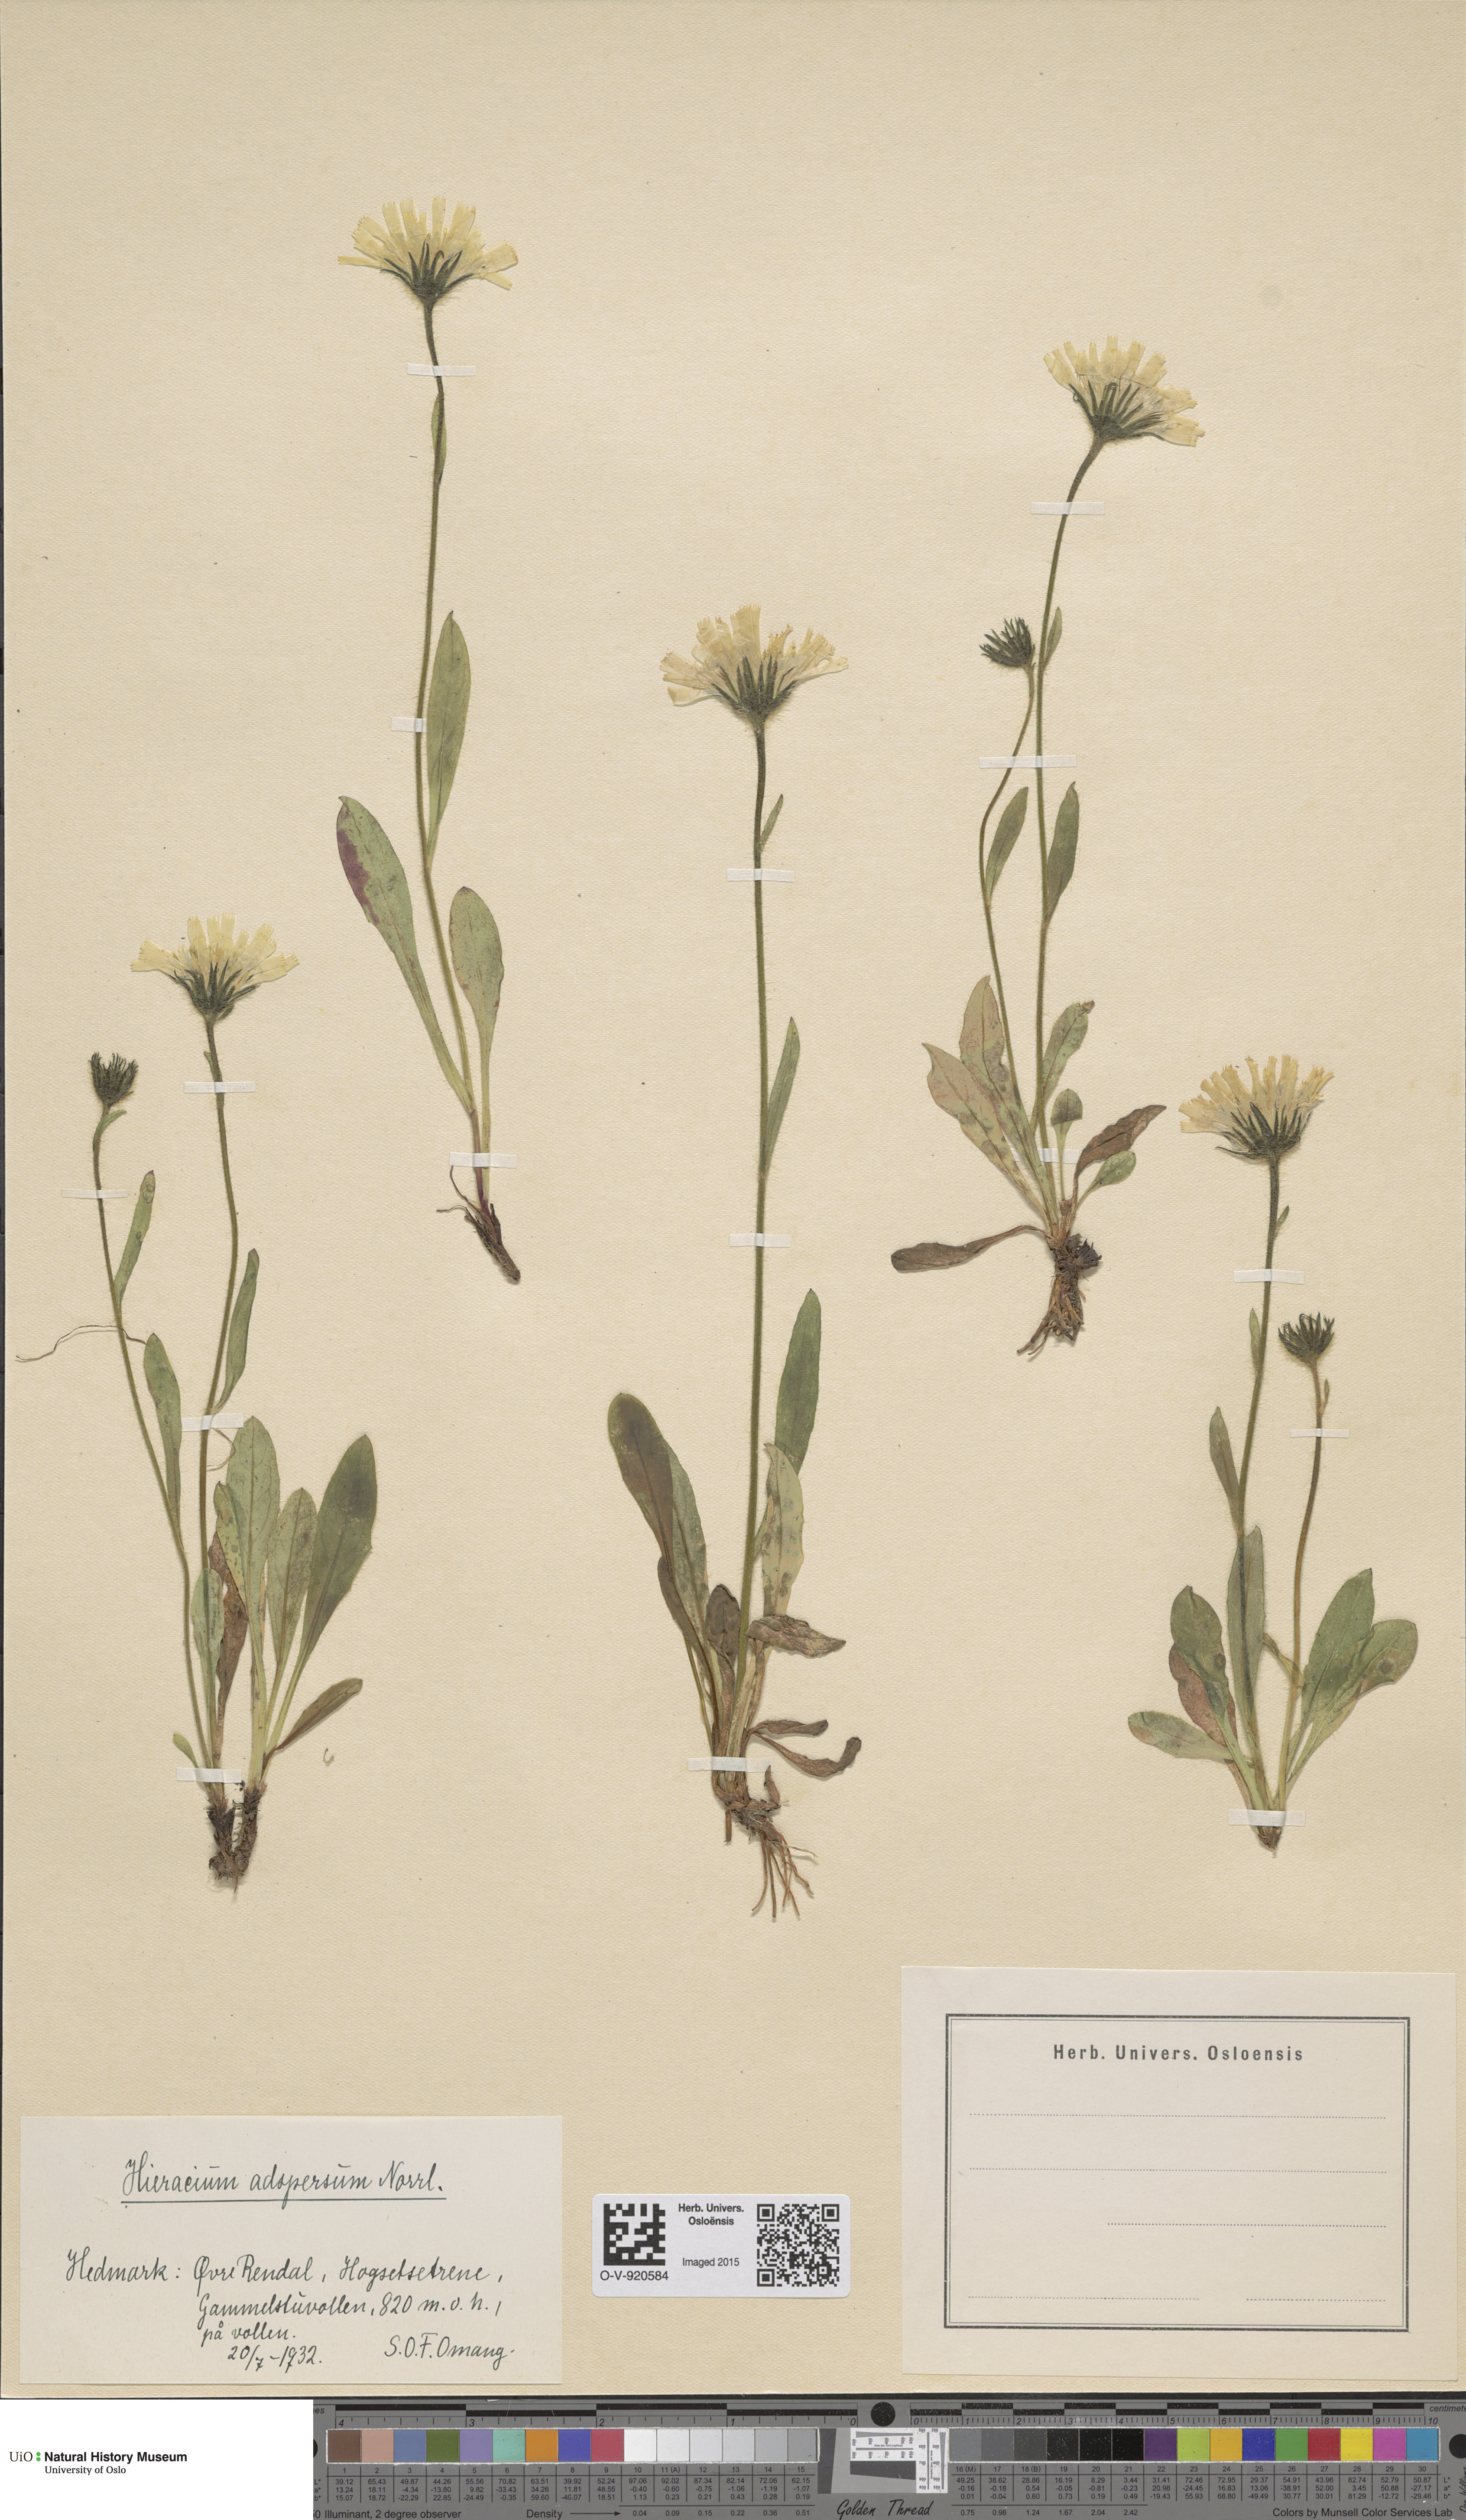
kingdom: Plantae
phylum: Tracheophyta
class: Magnoliopsida
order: Asterales
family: Asteraceae
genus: Hieracium
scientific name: Hieracium alpinum
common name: Alpine hawkweed
